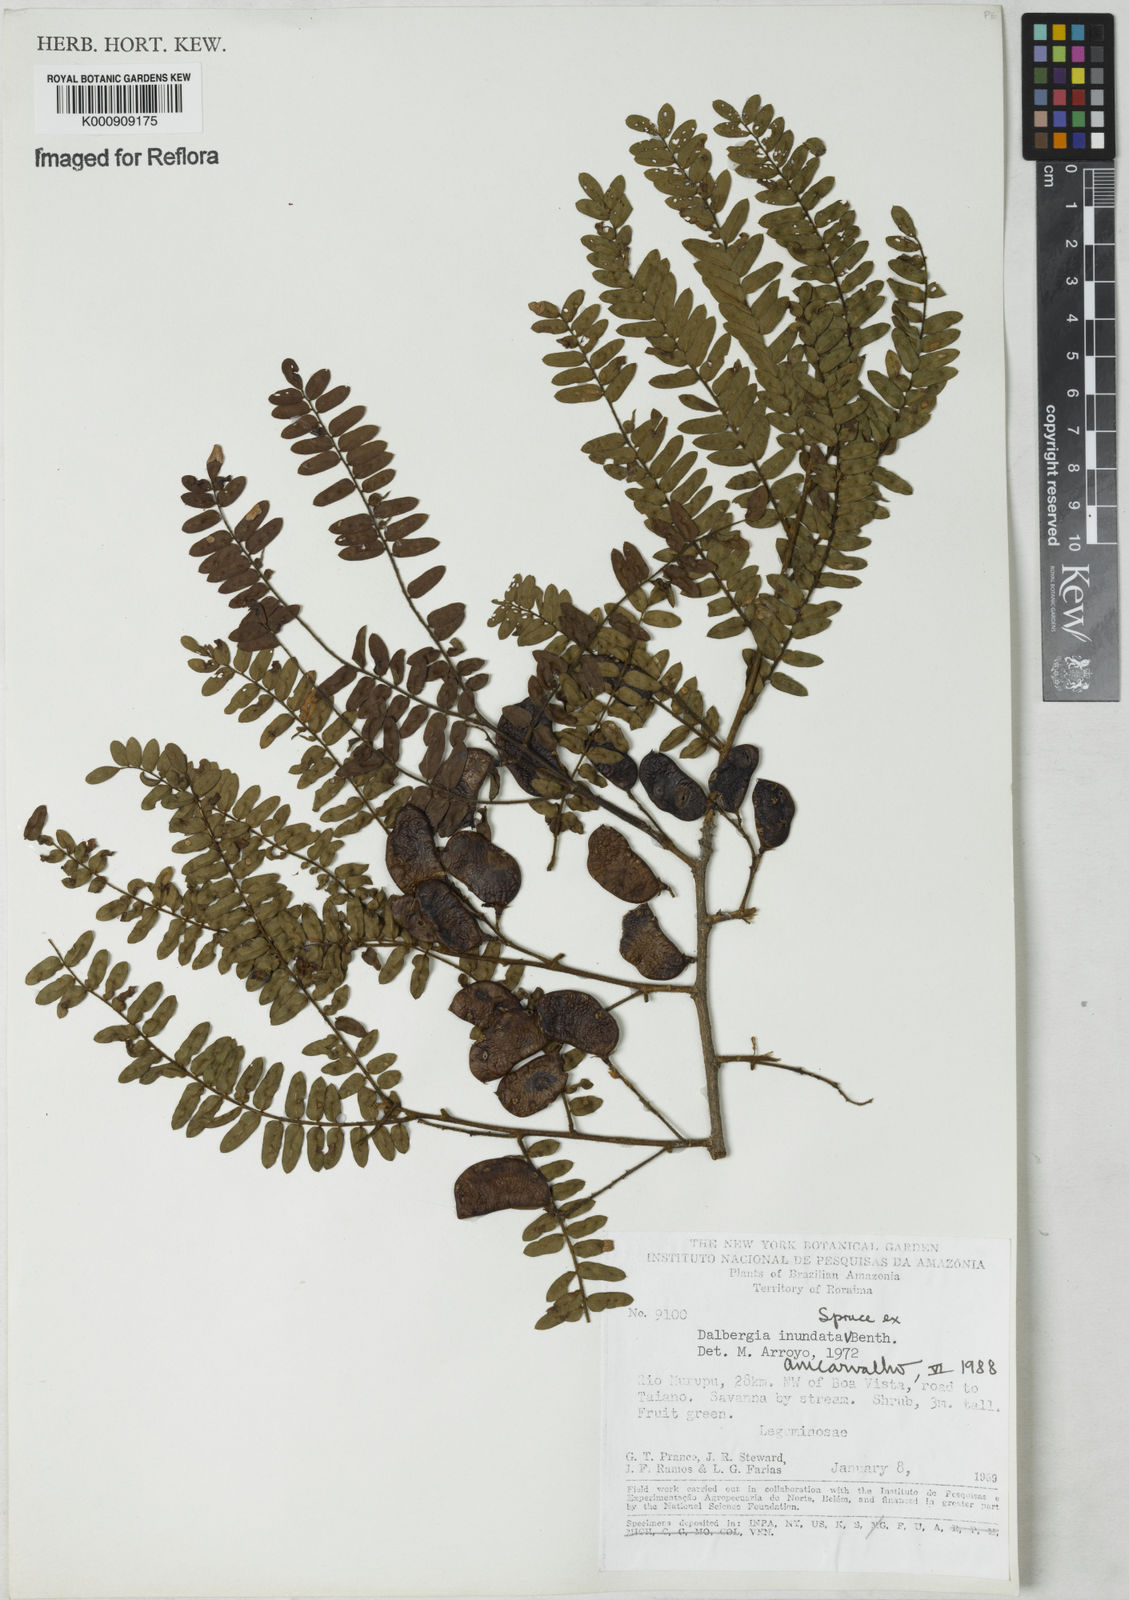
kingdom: Plantae
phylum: Tracheophyta
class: Magnoliopsida
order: Fabales
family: Fabaceae
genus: Dalbergia
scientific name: Dalbergia inundata
